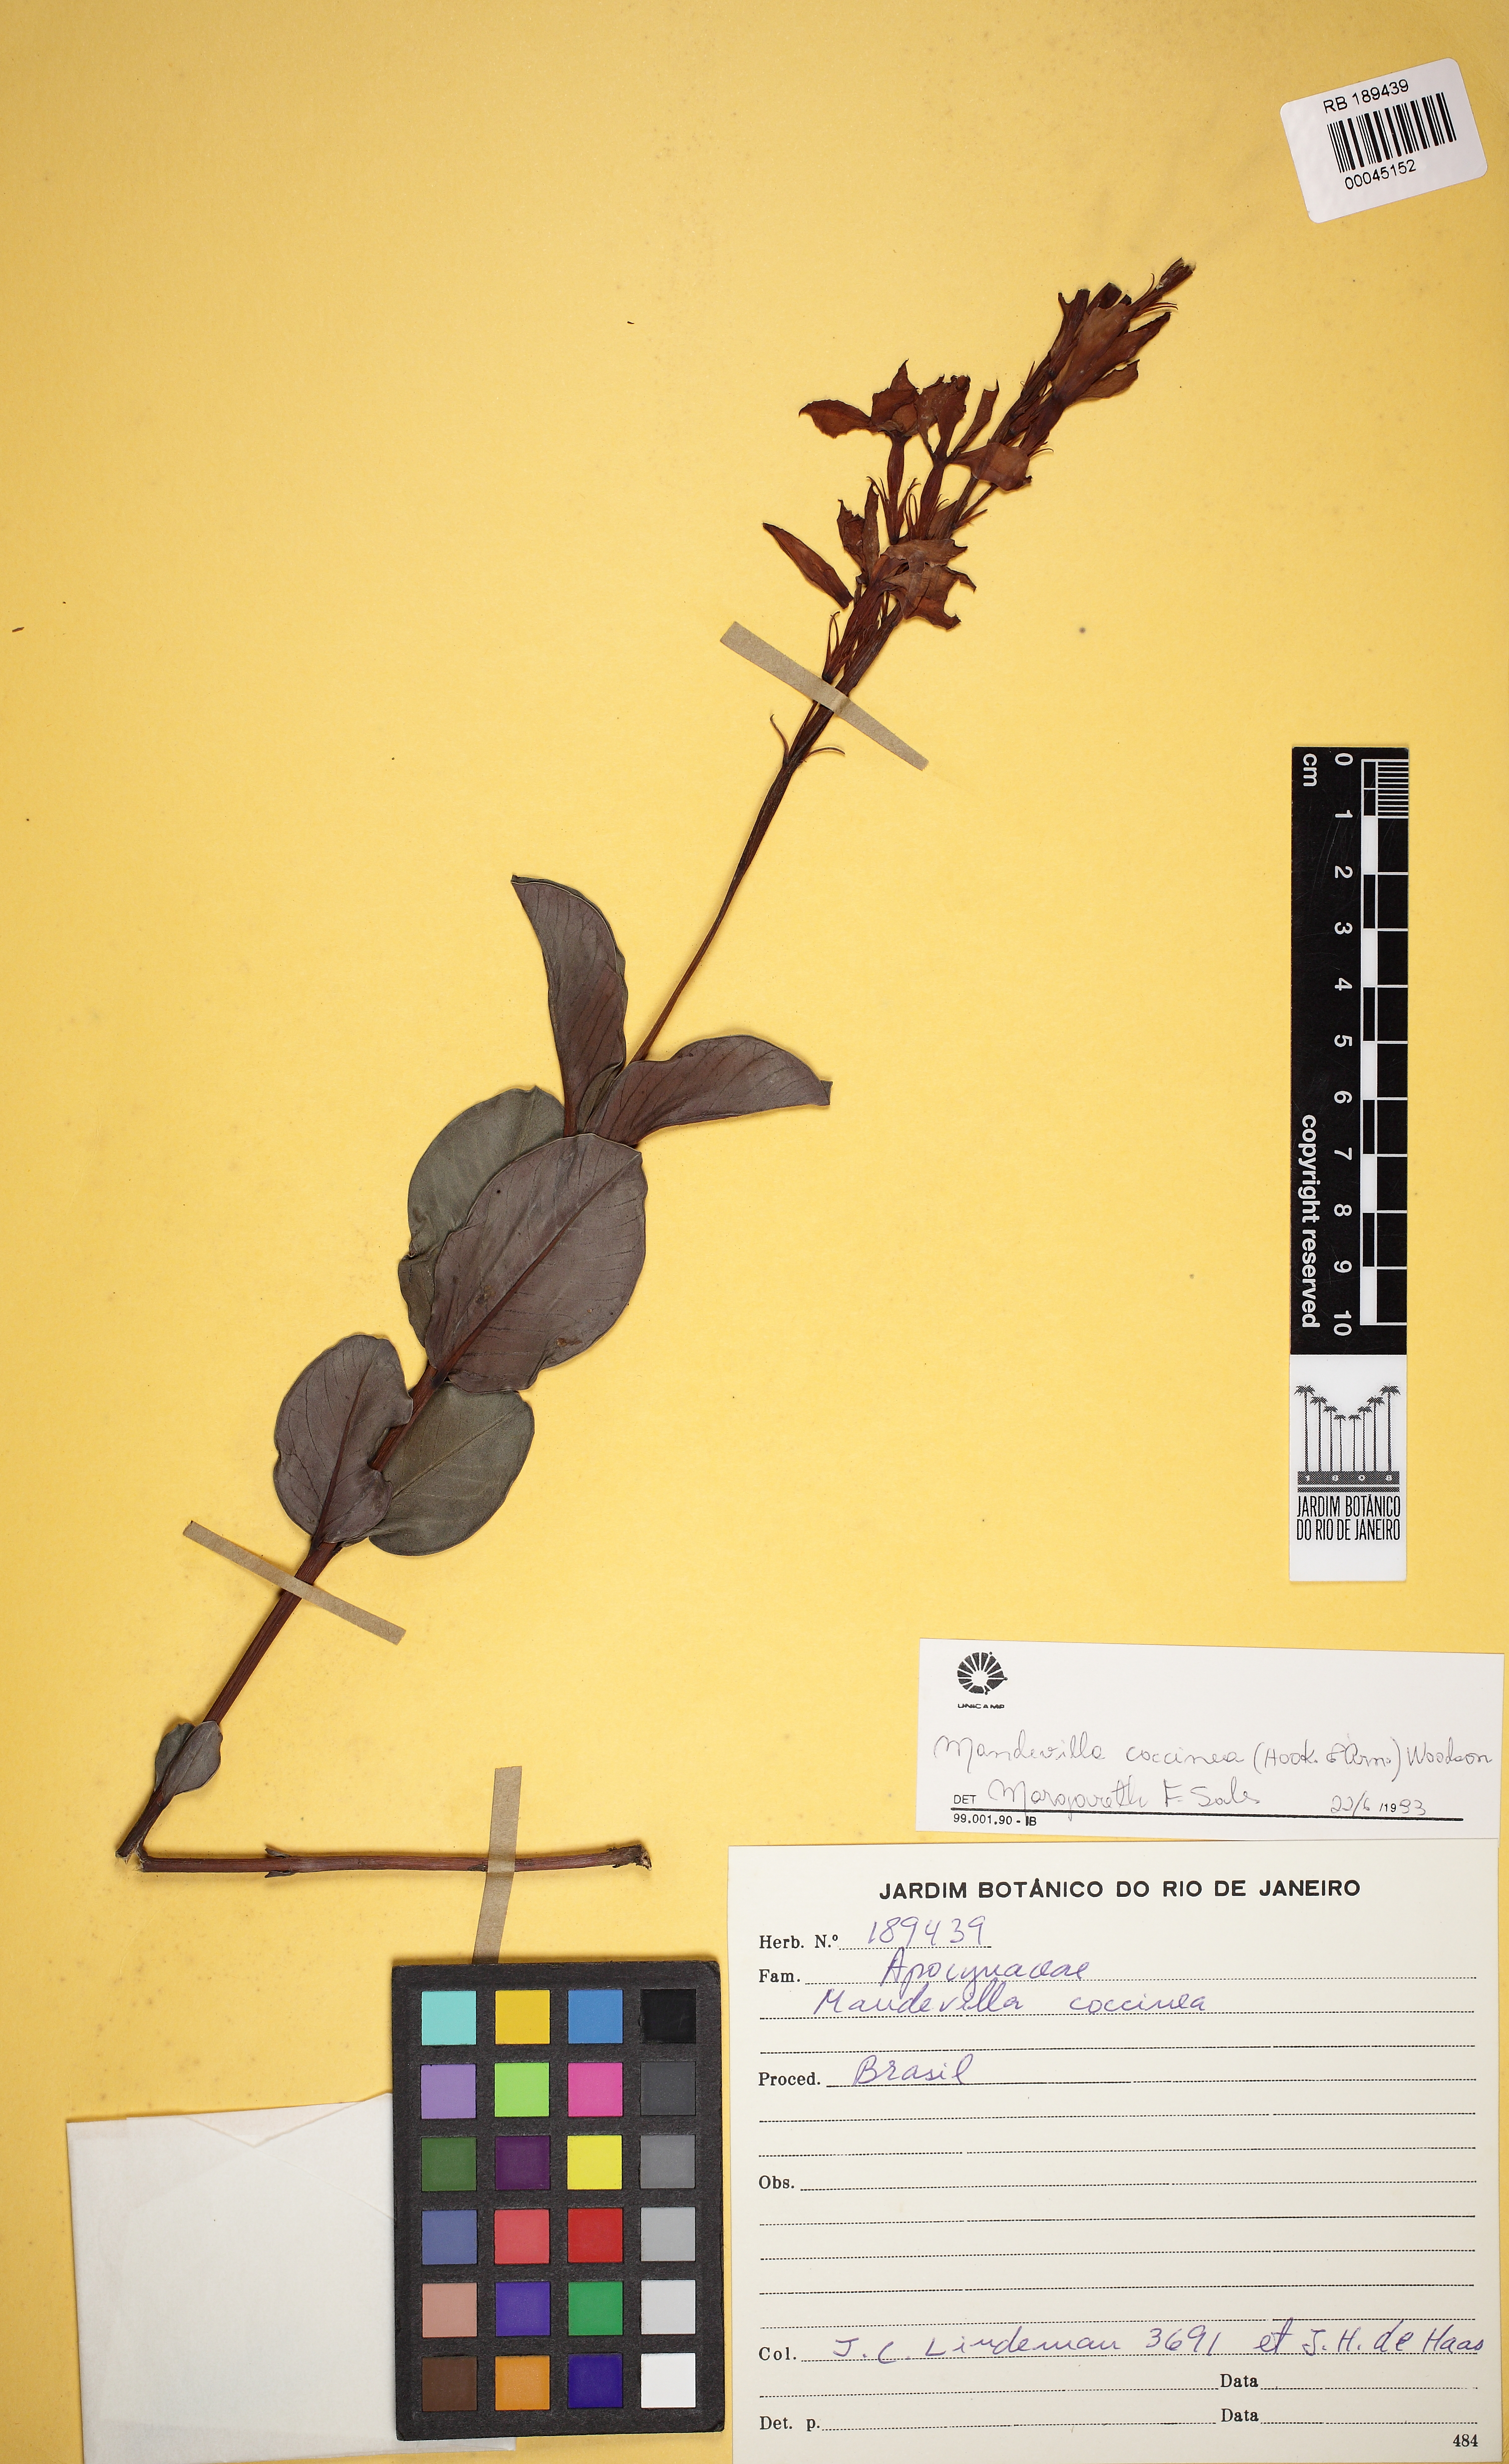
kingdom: Plantae
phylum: Tracheophyta
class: Magnoliopsida
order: Gentianales
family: Apocynaceae
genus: Mandevilla
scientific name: Mandevilla coccinea
